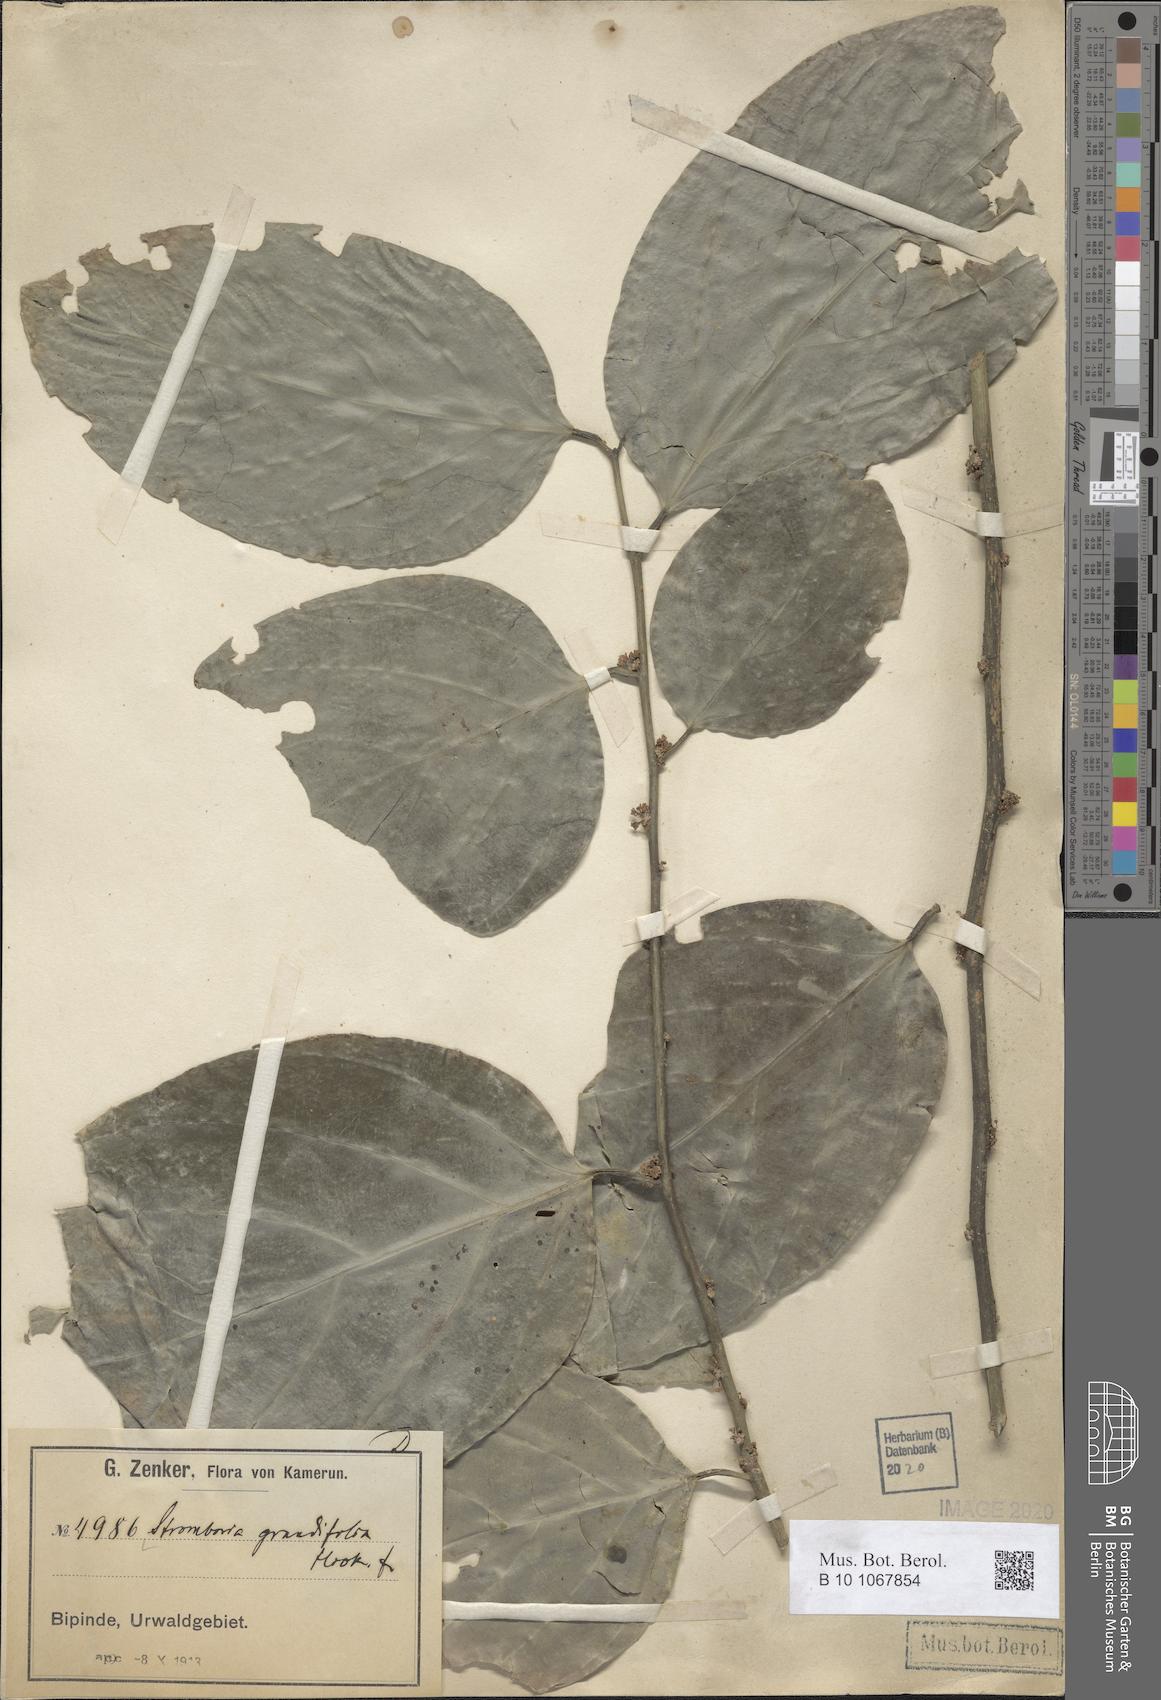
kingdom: Plantae
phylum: Tracheophyta
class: Magnoliopsida
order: Santalales
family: Strombosiaceae
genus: Strombosia
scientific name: Strombosia grandifolia
